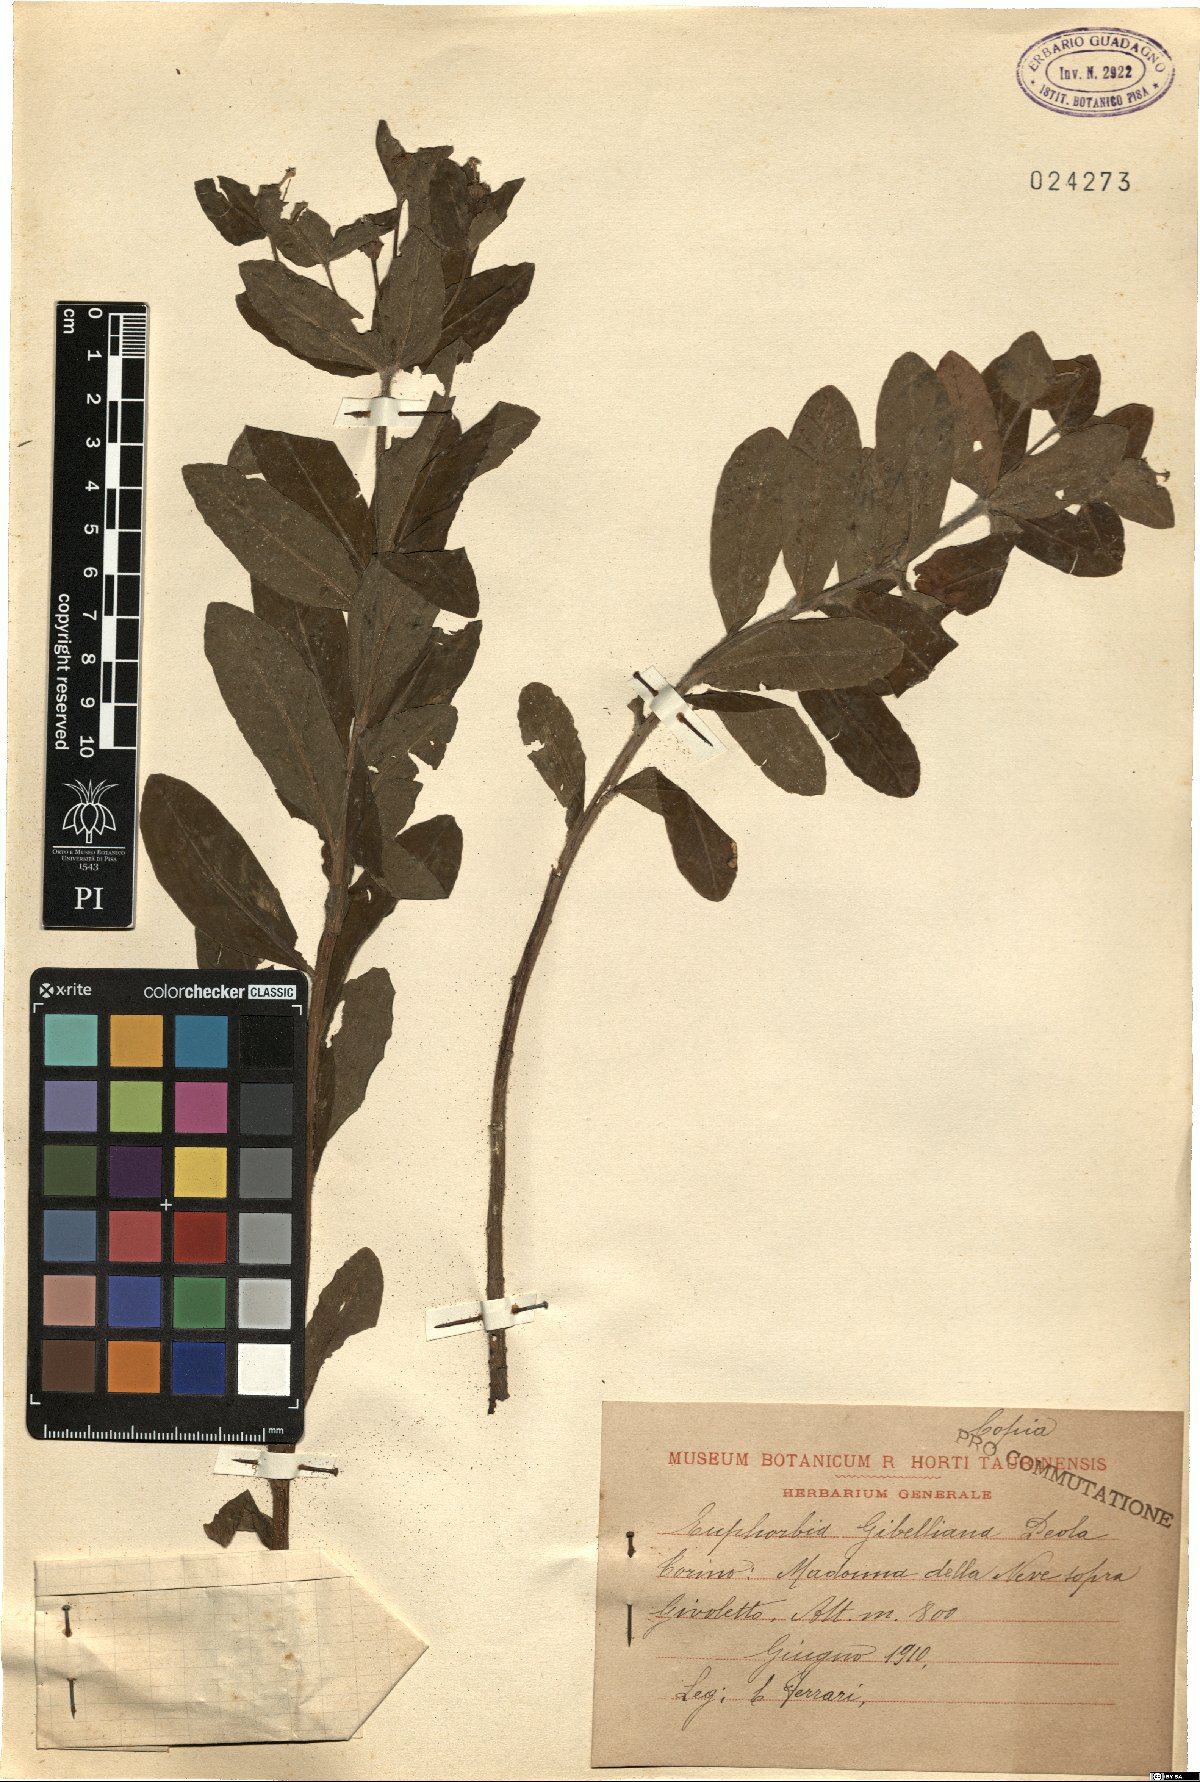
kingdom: Plantae
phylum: Tracheophyta
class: Magnoliopsida
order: Malpighiales
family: Euphorbiaceae
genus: Euphorbia
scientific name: Euphorbia gibelliana
